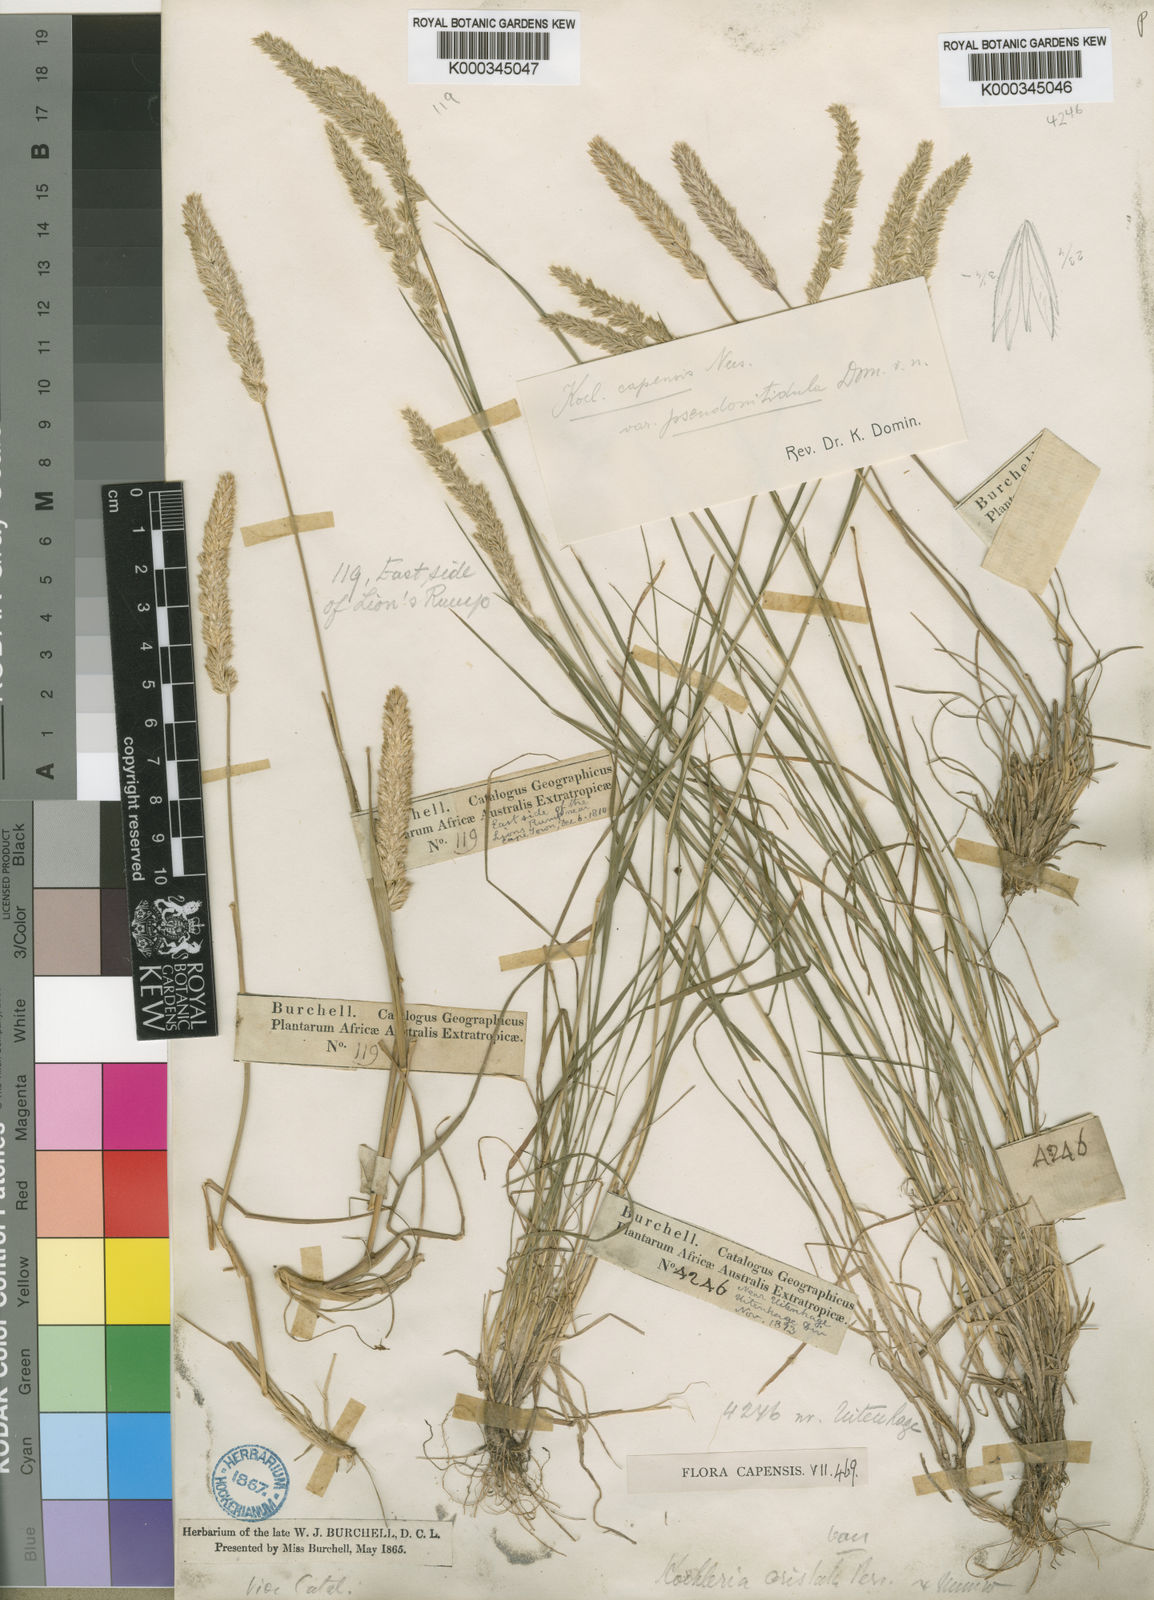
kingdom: Plantae
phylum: Tracheophyta
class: Liliopsida
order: Poales
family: Poaceae
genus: Koeleria
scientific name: Koeleria capensis
